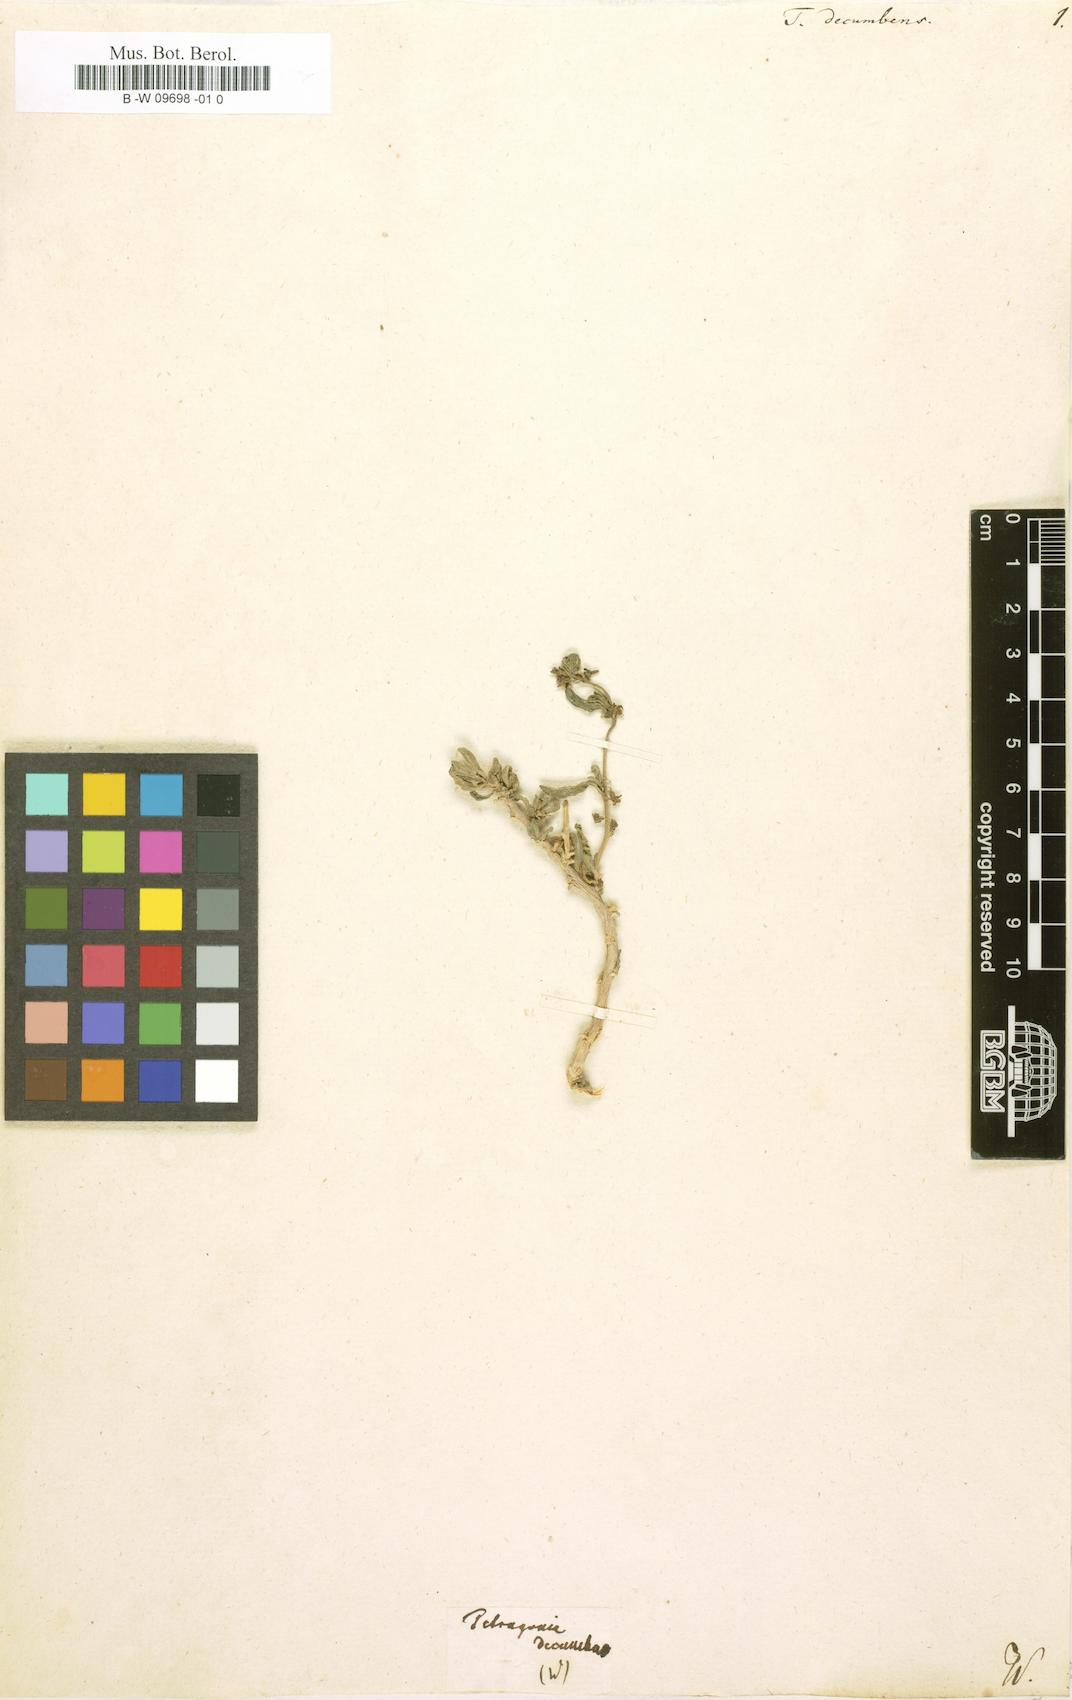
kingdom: Plantae
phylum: Tracheophyta
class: Magnoliopsida
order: Caryophyllales
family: Aizoaceae
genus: Tetragonia
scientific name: Tetragonia decumbens
